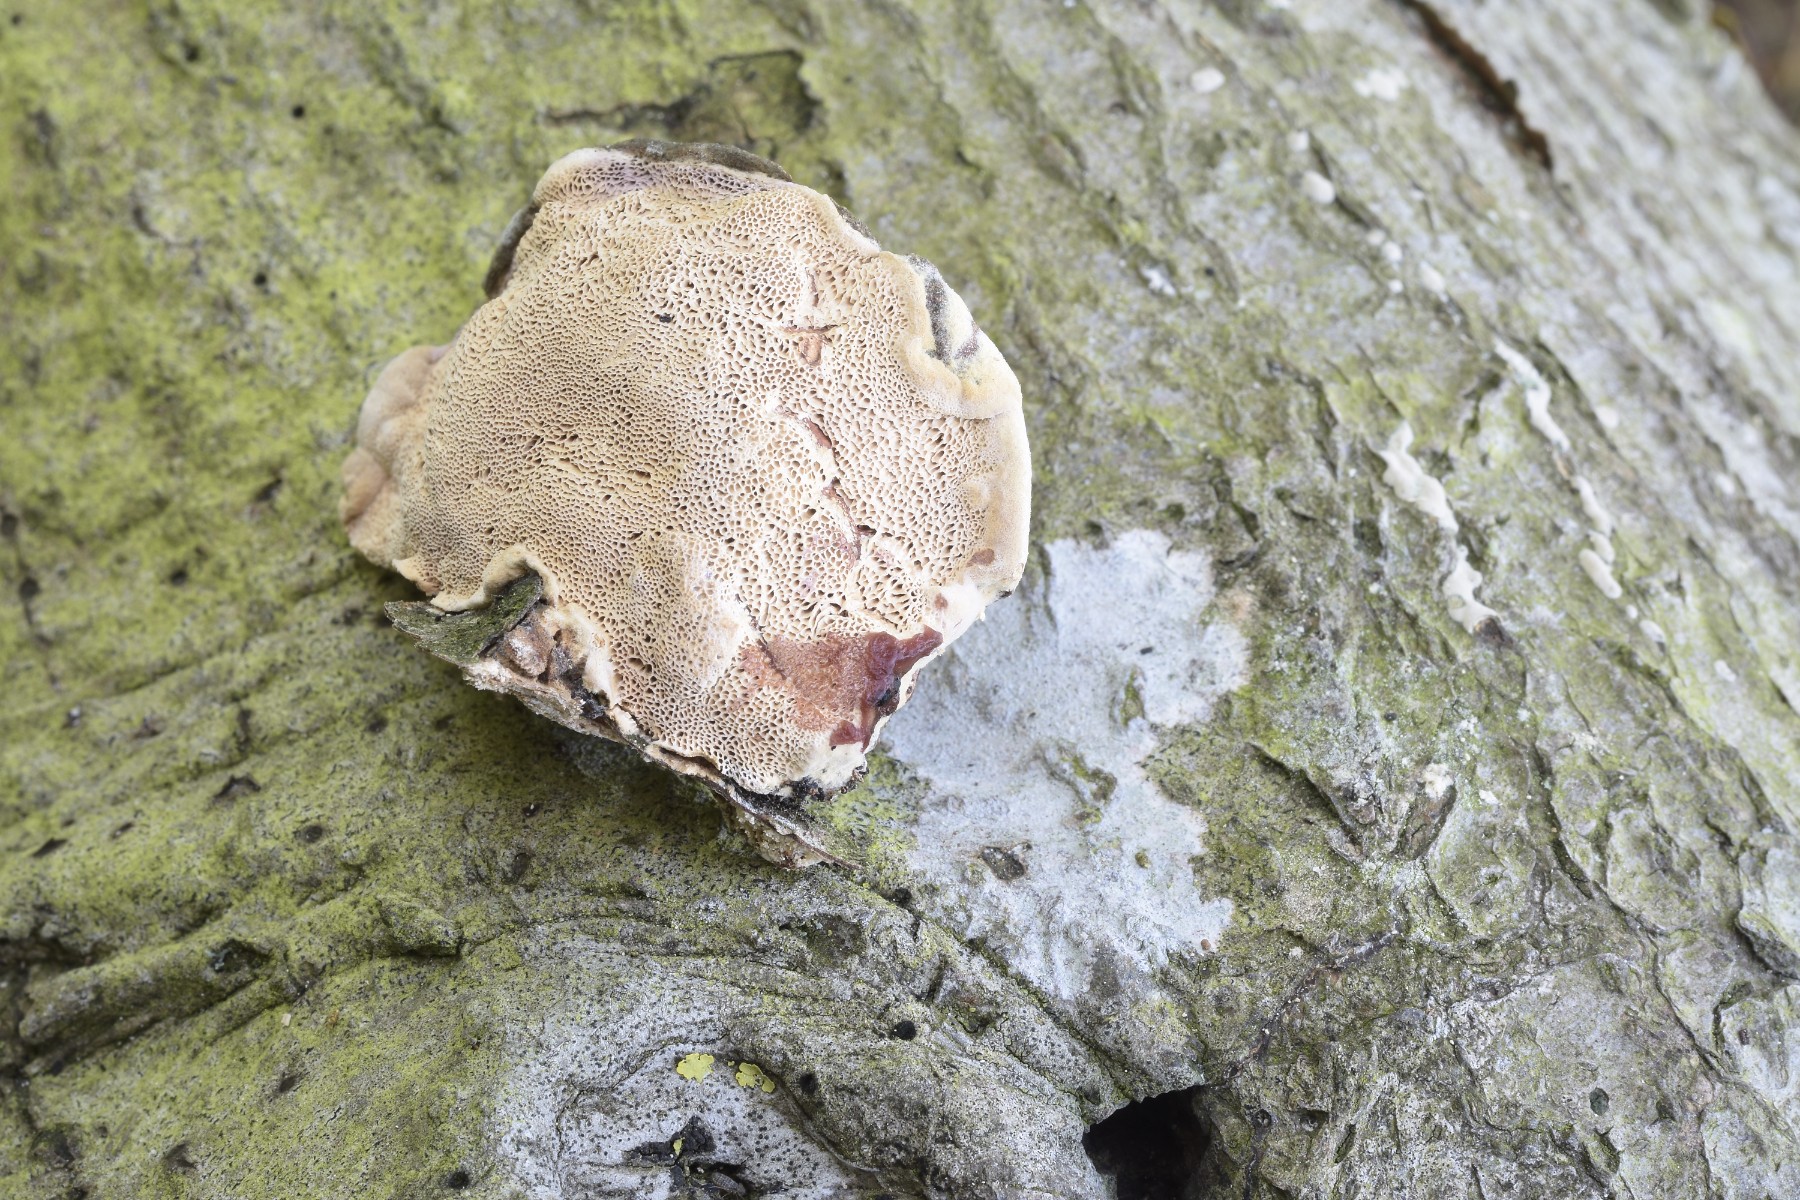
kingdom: Fungi
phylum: Basidiomycota
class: Agaricomycetes
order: Polyporales
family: Phanerochaetaceae
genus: Hapalopilus
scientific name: Hapalopilus rutilans
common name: rødlig okkerporesvamp
